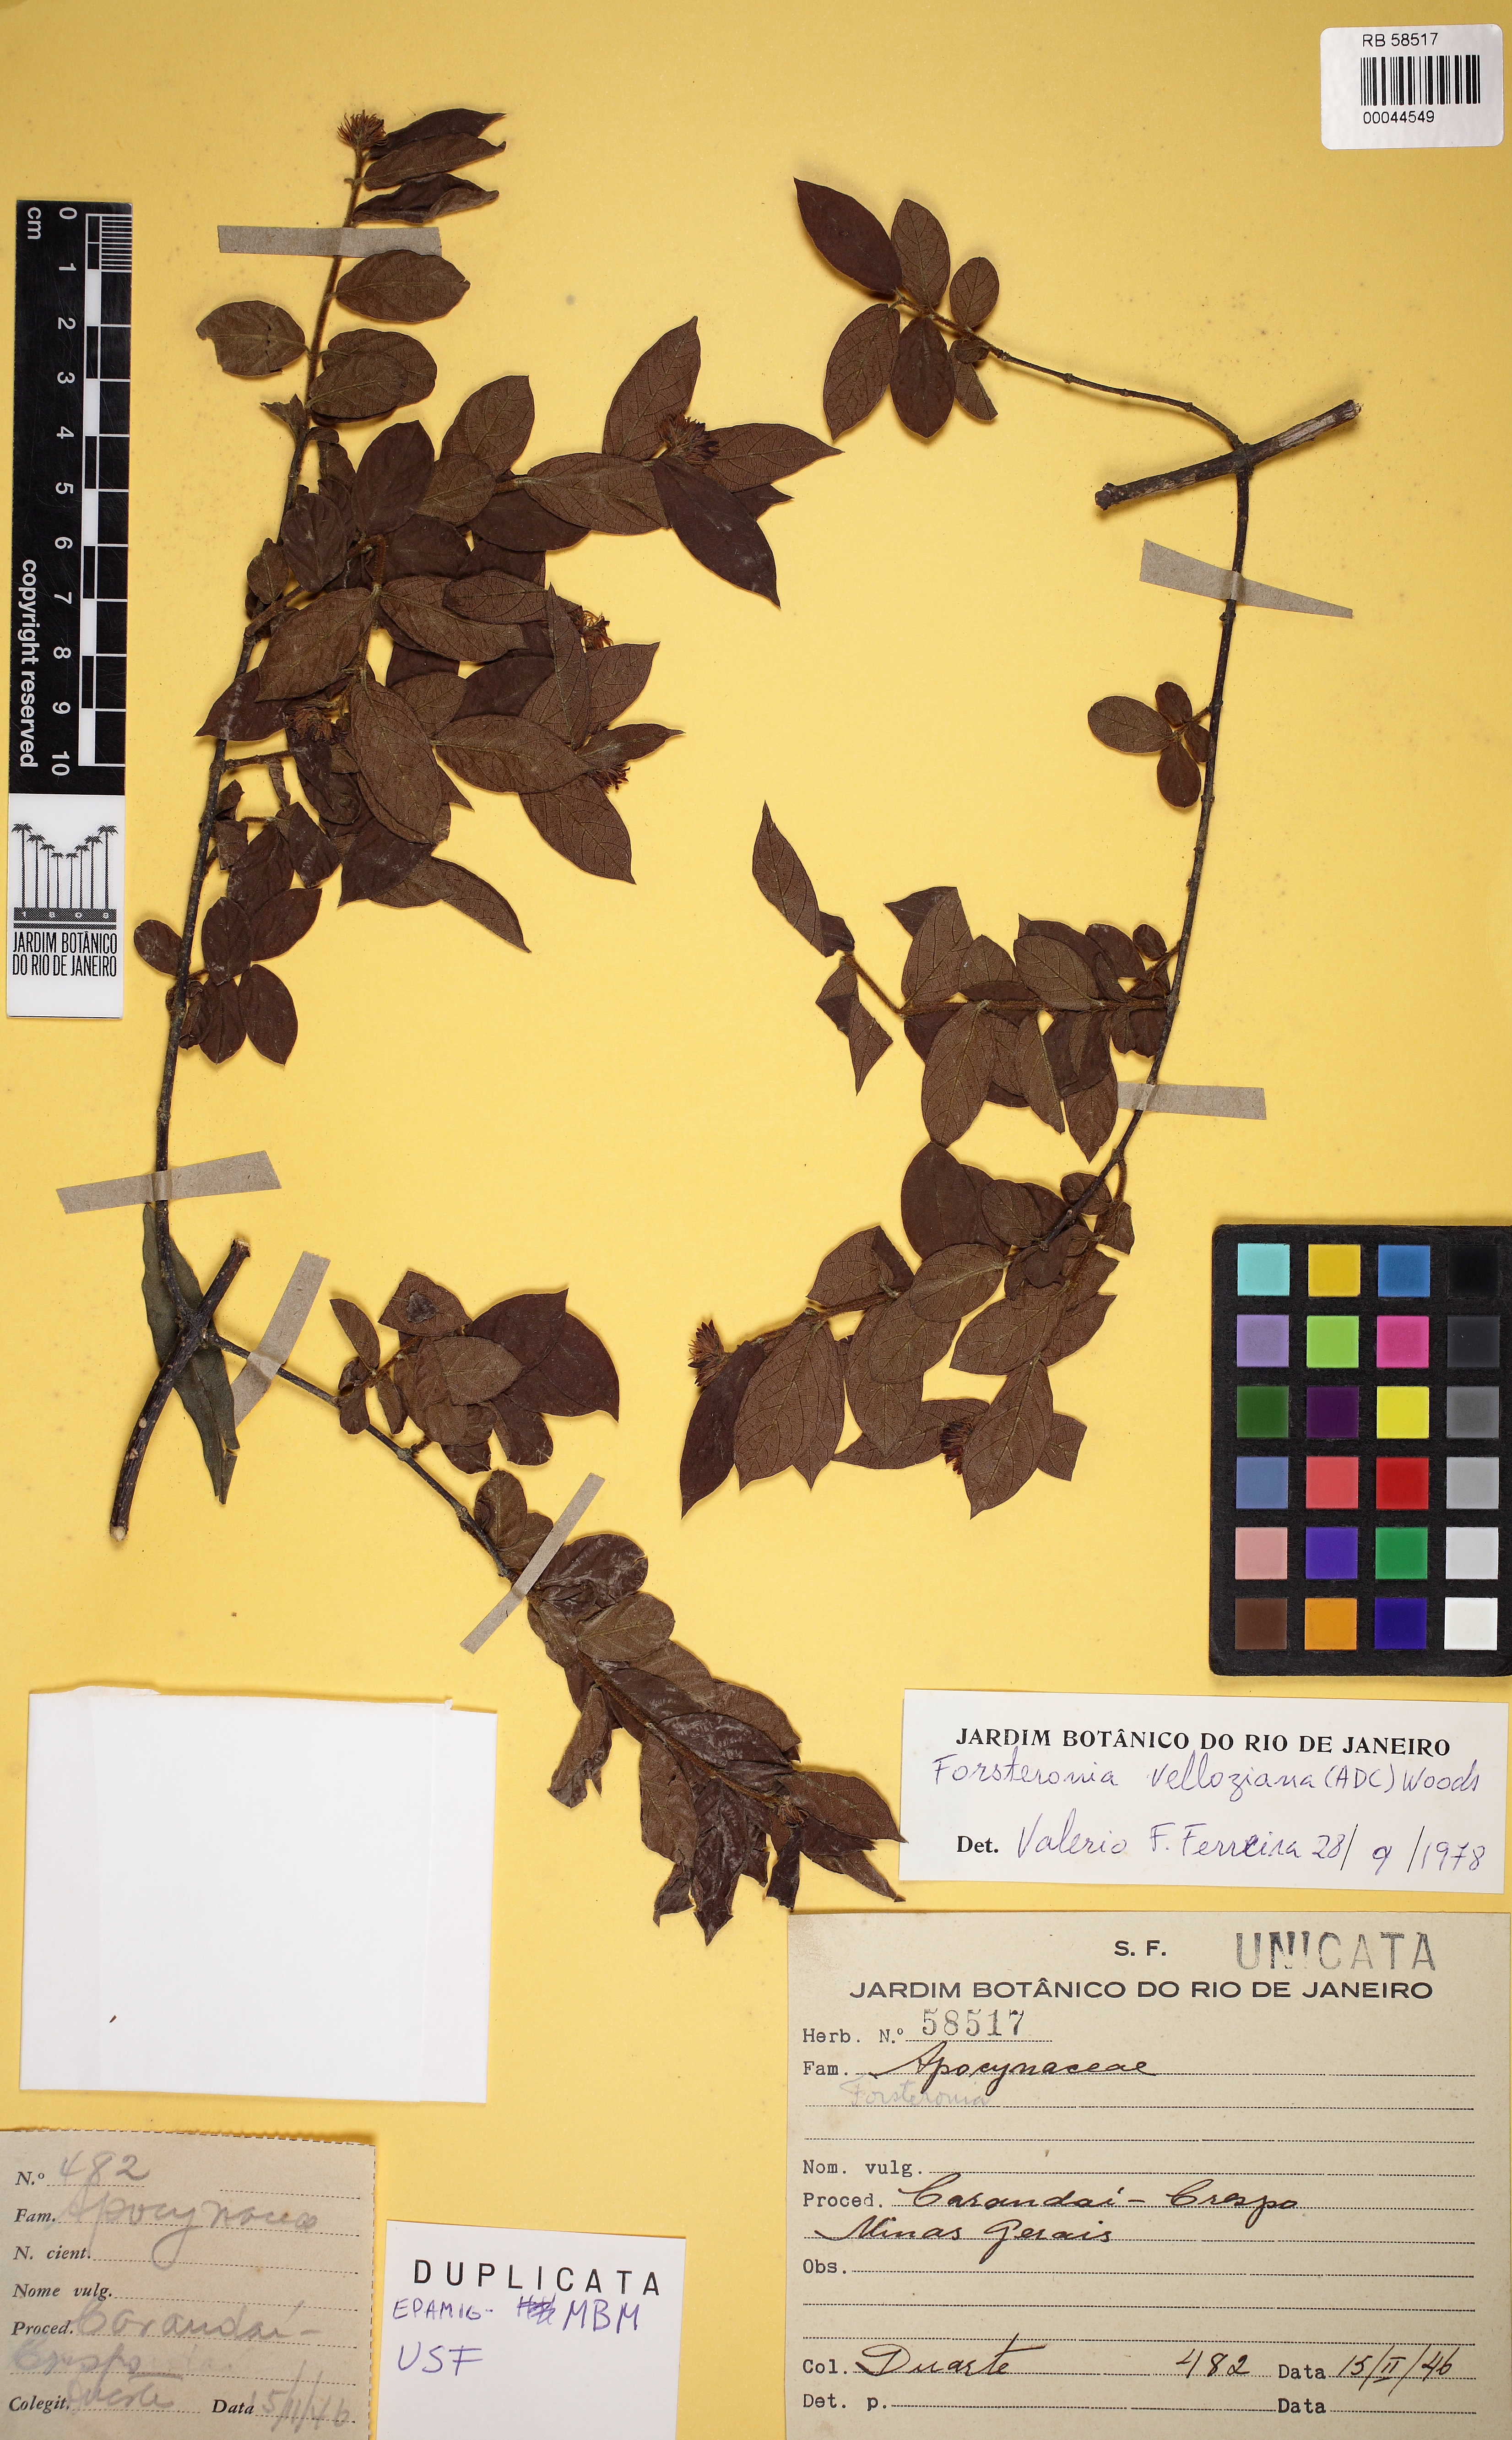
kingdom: Plantae
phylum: Tracheophyta
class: Magnoliopsida
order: Gentianales
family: Apocynaceae
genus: Forsteronia
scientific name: Forsteronia velloziana
